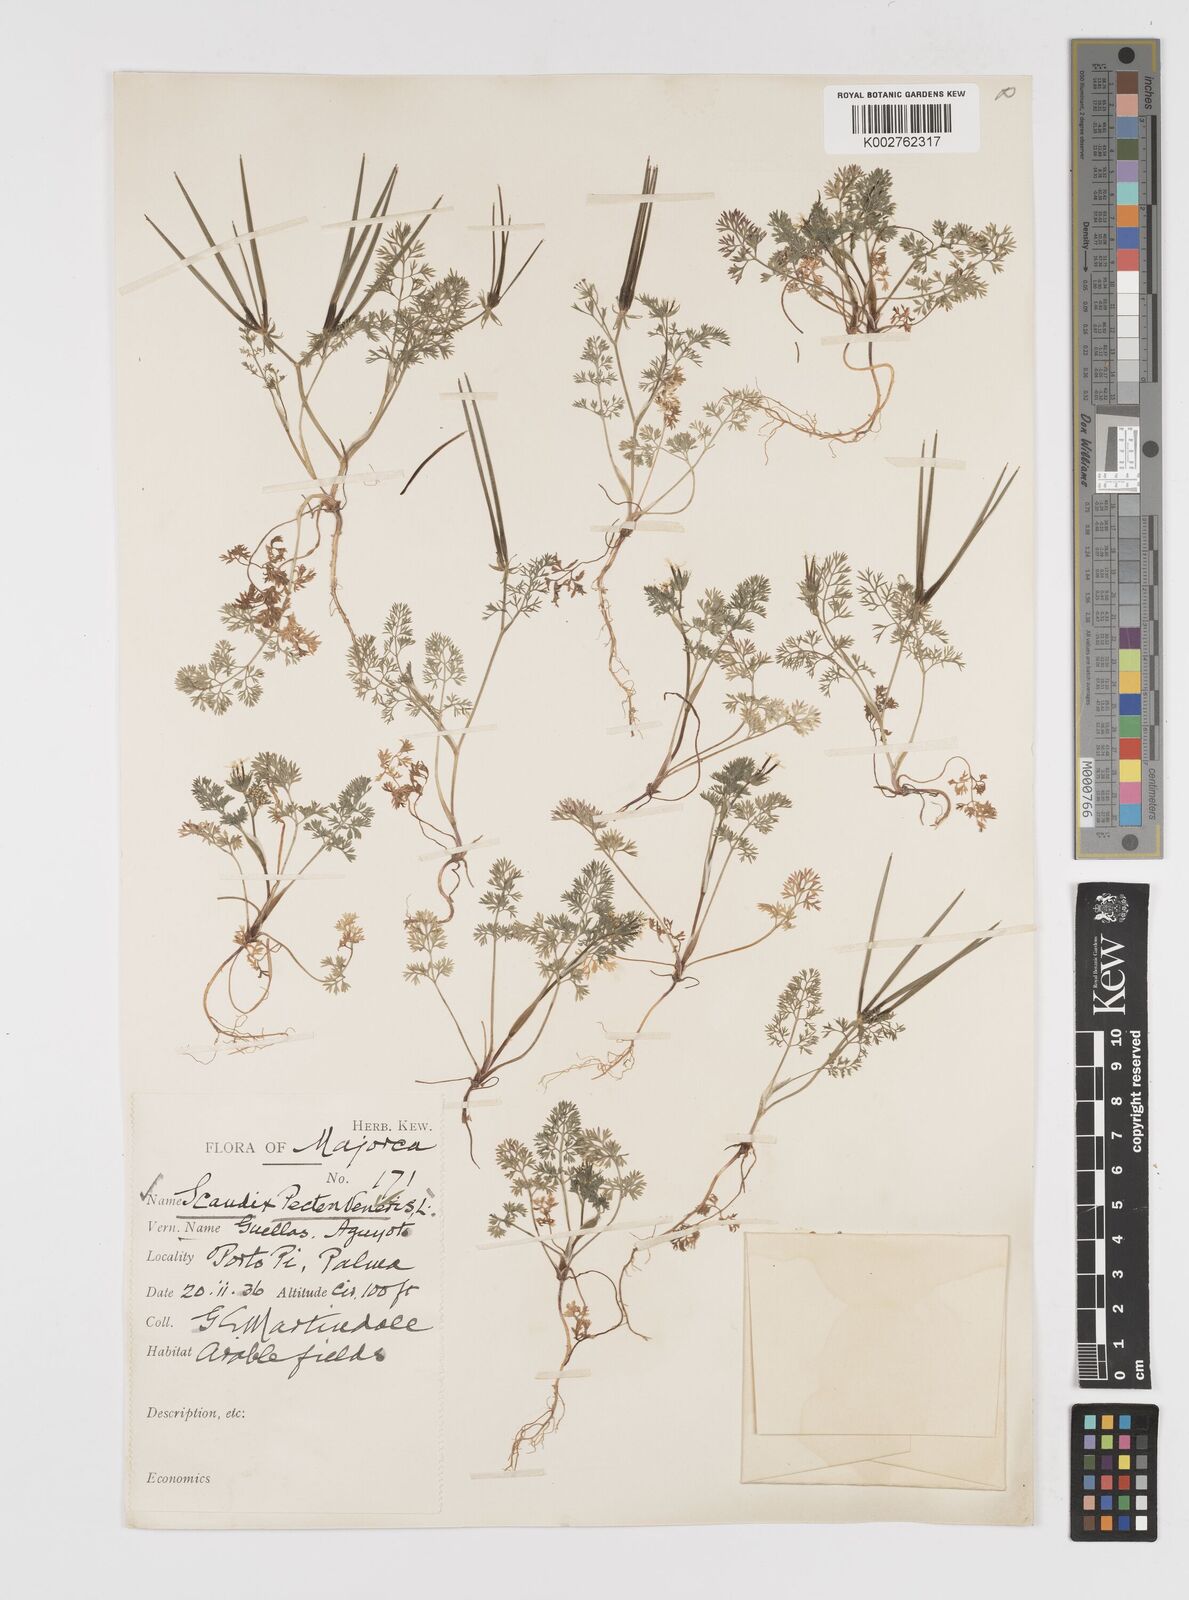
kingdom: Plantae
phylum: Tracheophyta
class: Magnoliopsida
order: Apiales
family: Apiaceae
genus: Scandix
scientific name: Scandix pecten-veneris
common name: Shepherd's-needle
